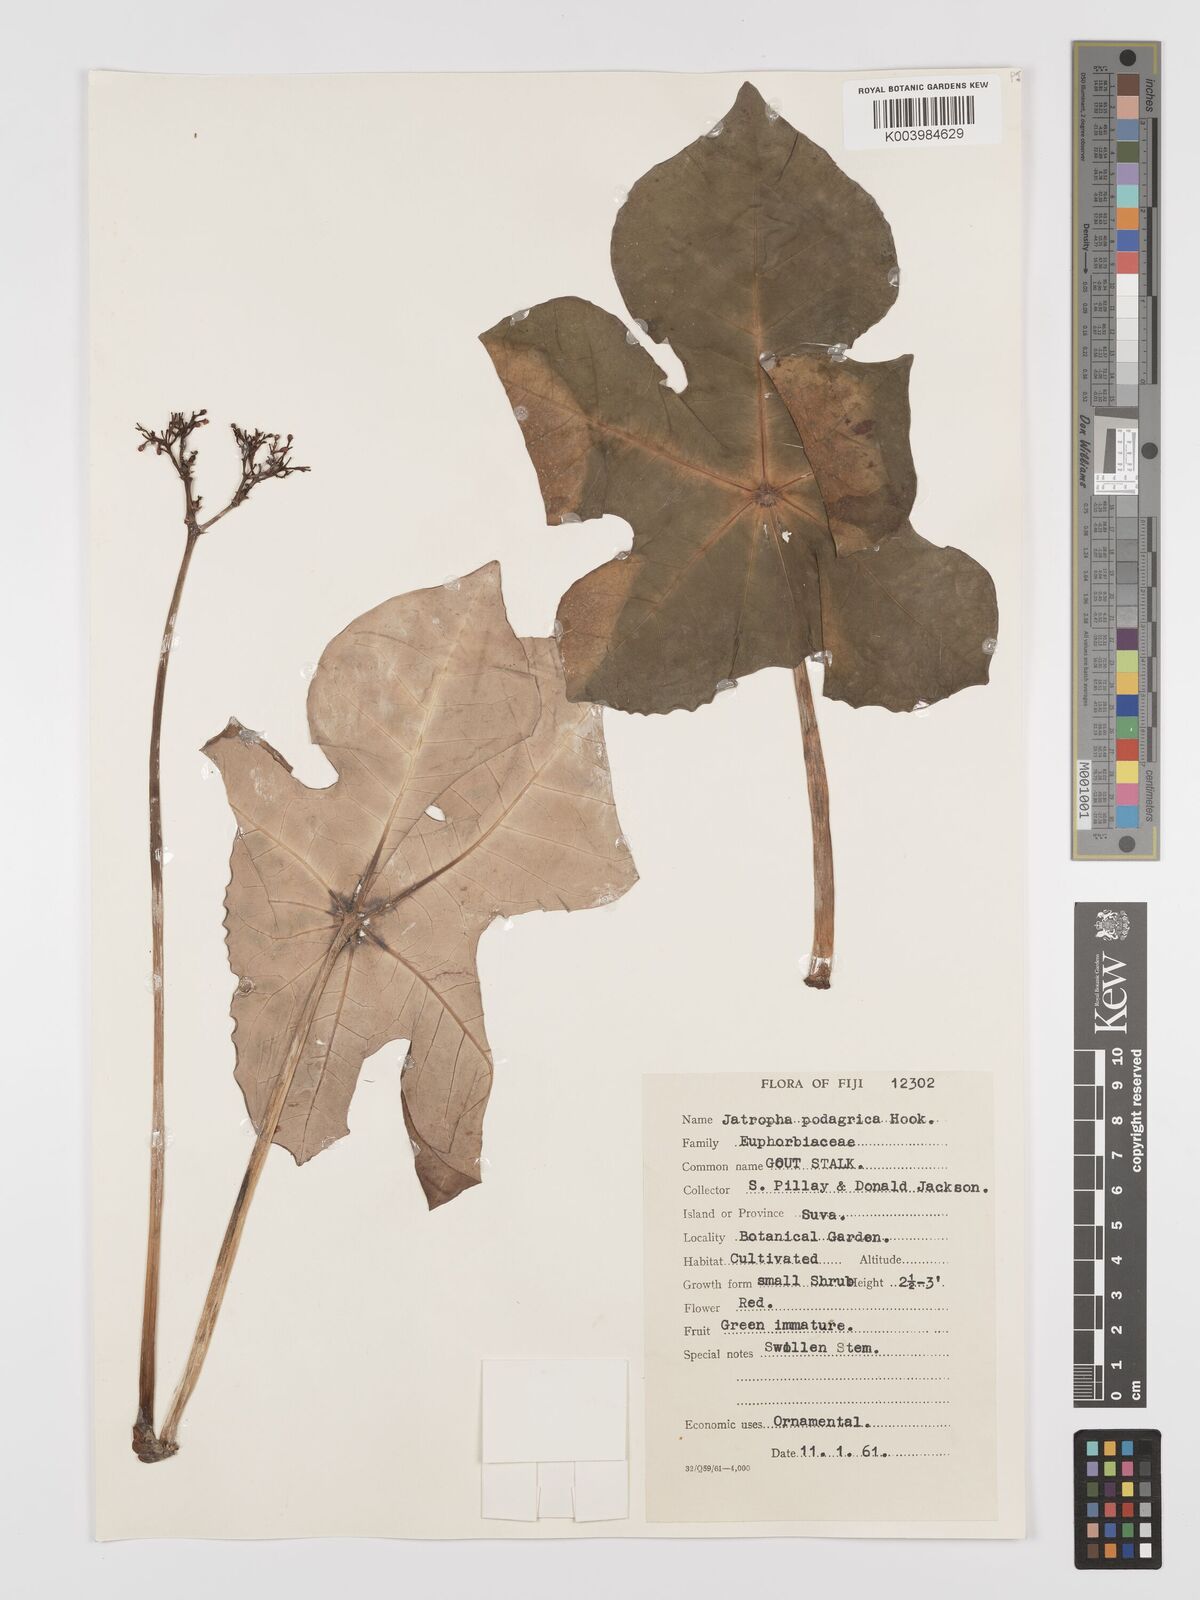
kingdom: Plantae
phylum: Tracheophyta
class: Magnoliopsida
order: Malpighiales
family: Euphorbiaceae
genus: Jatropha
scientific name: Jatropha podagrica
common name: Gout stalk
